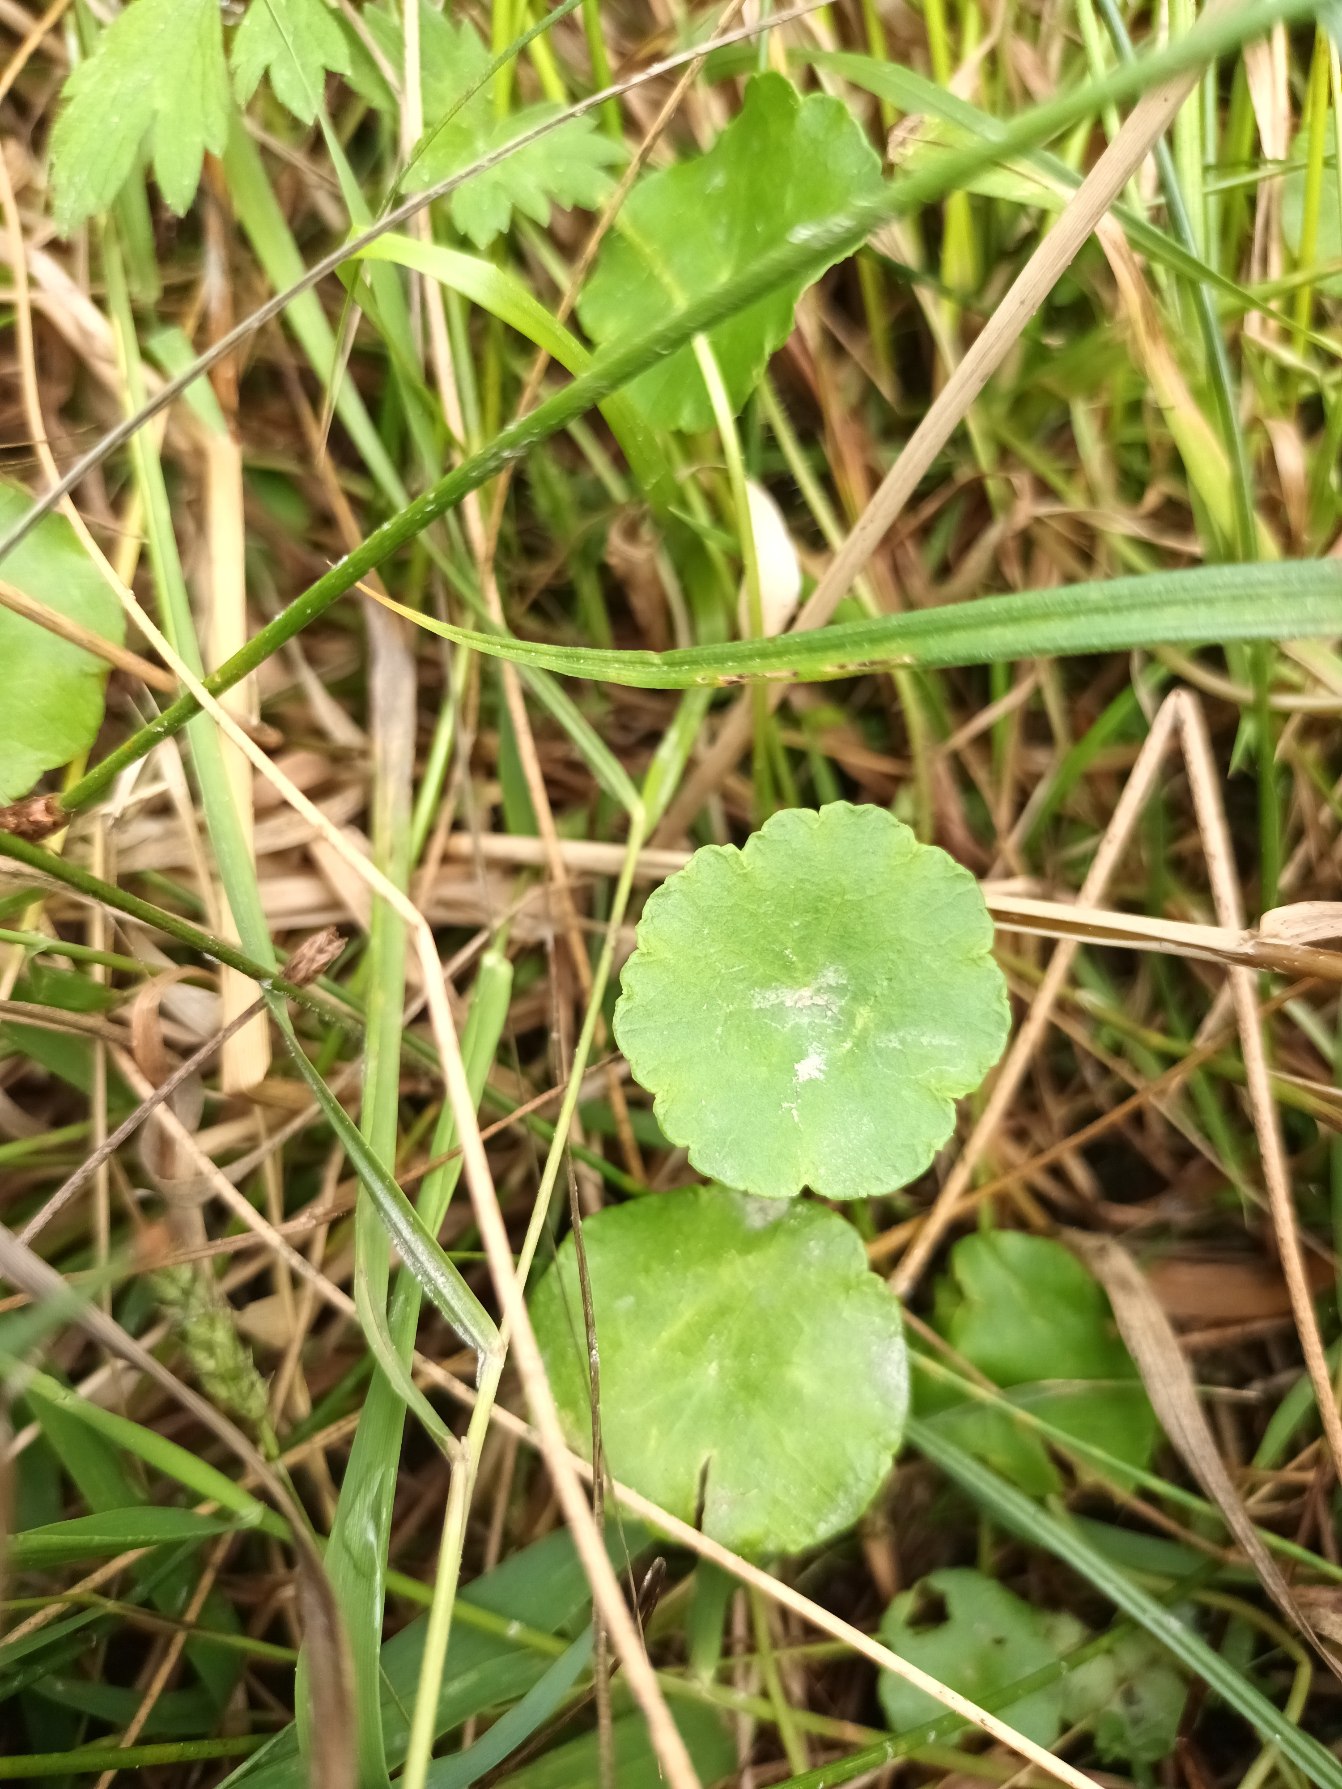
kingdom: Plantae
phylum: Tracheophyta
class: Magnoliopsida
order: Apiales
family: Araliaceae
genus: Hydrocotyle
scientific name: Hydrocotyle vulgaris
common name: Vandnavle
